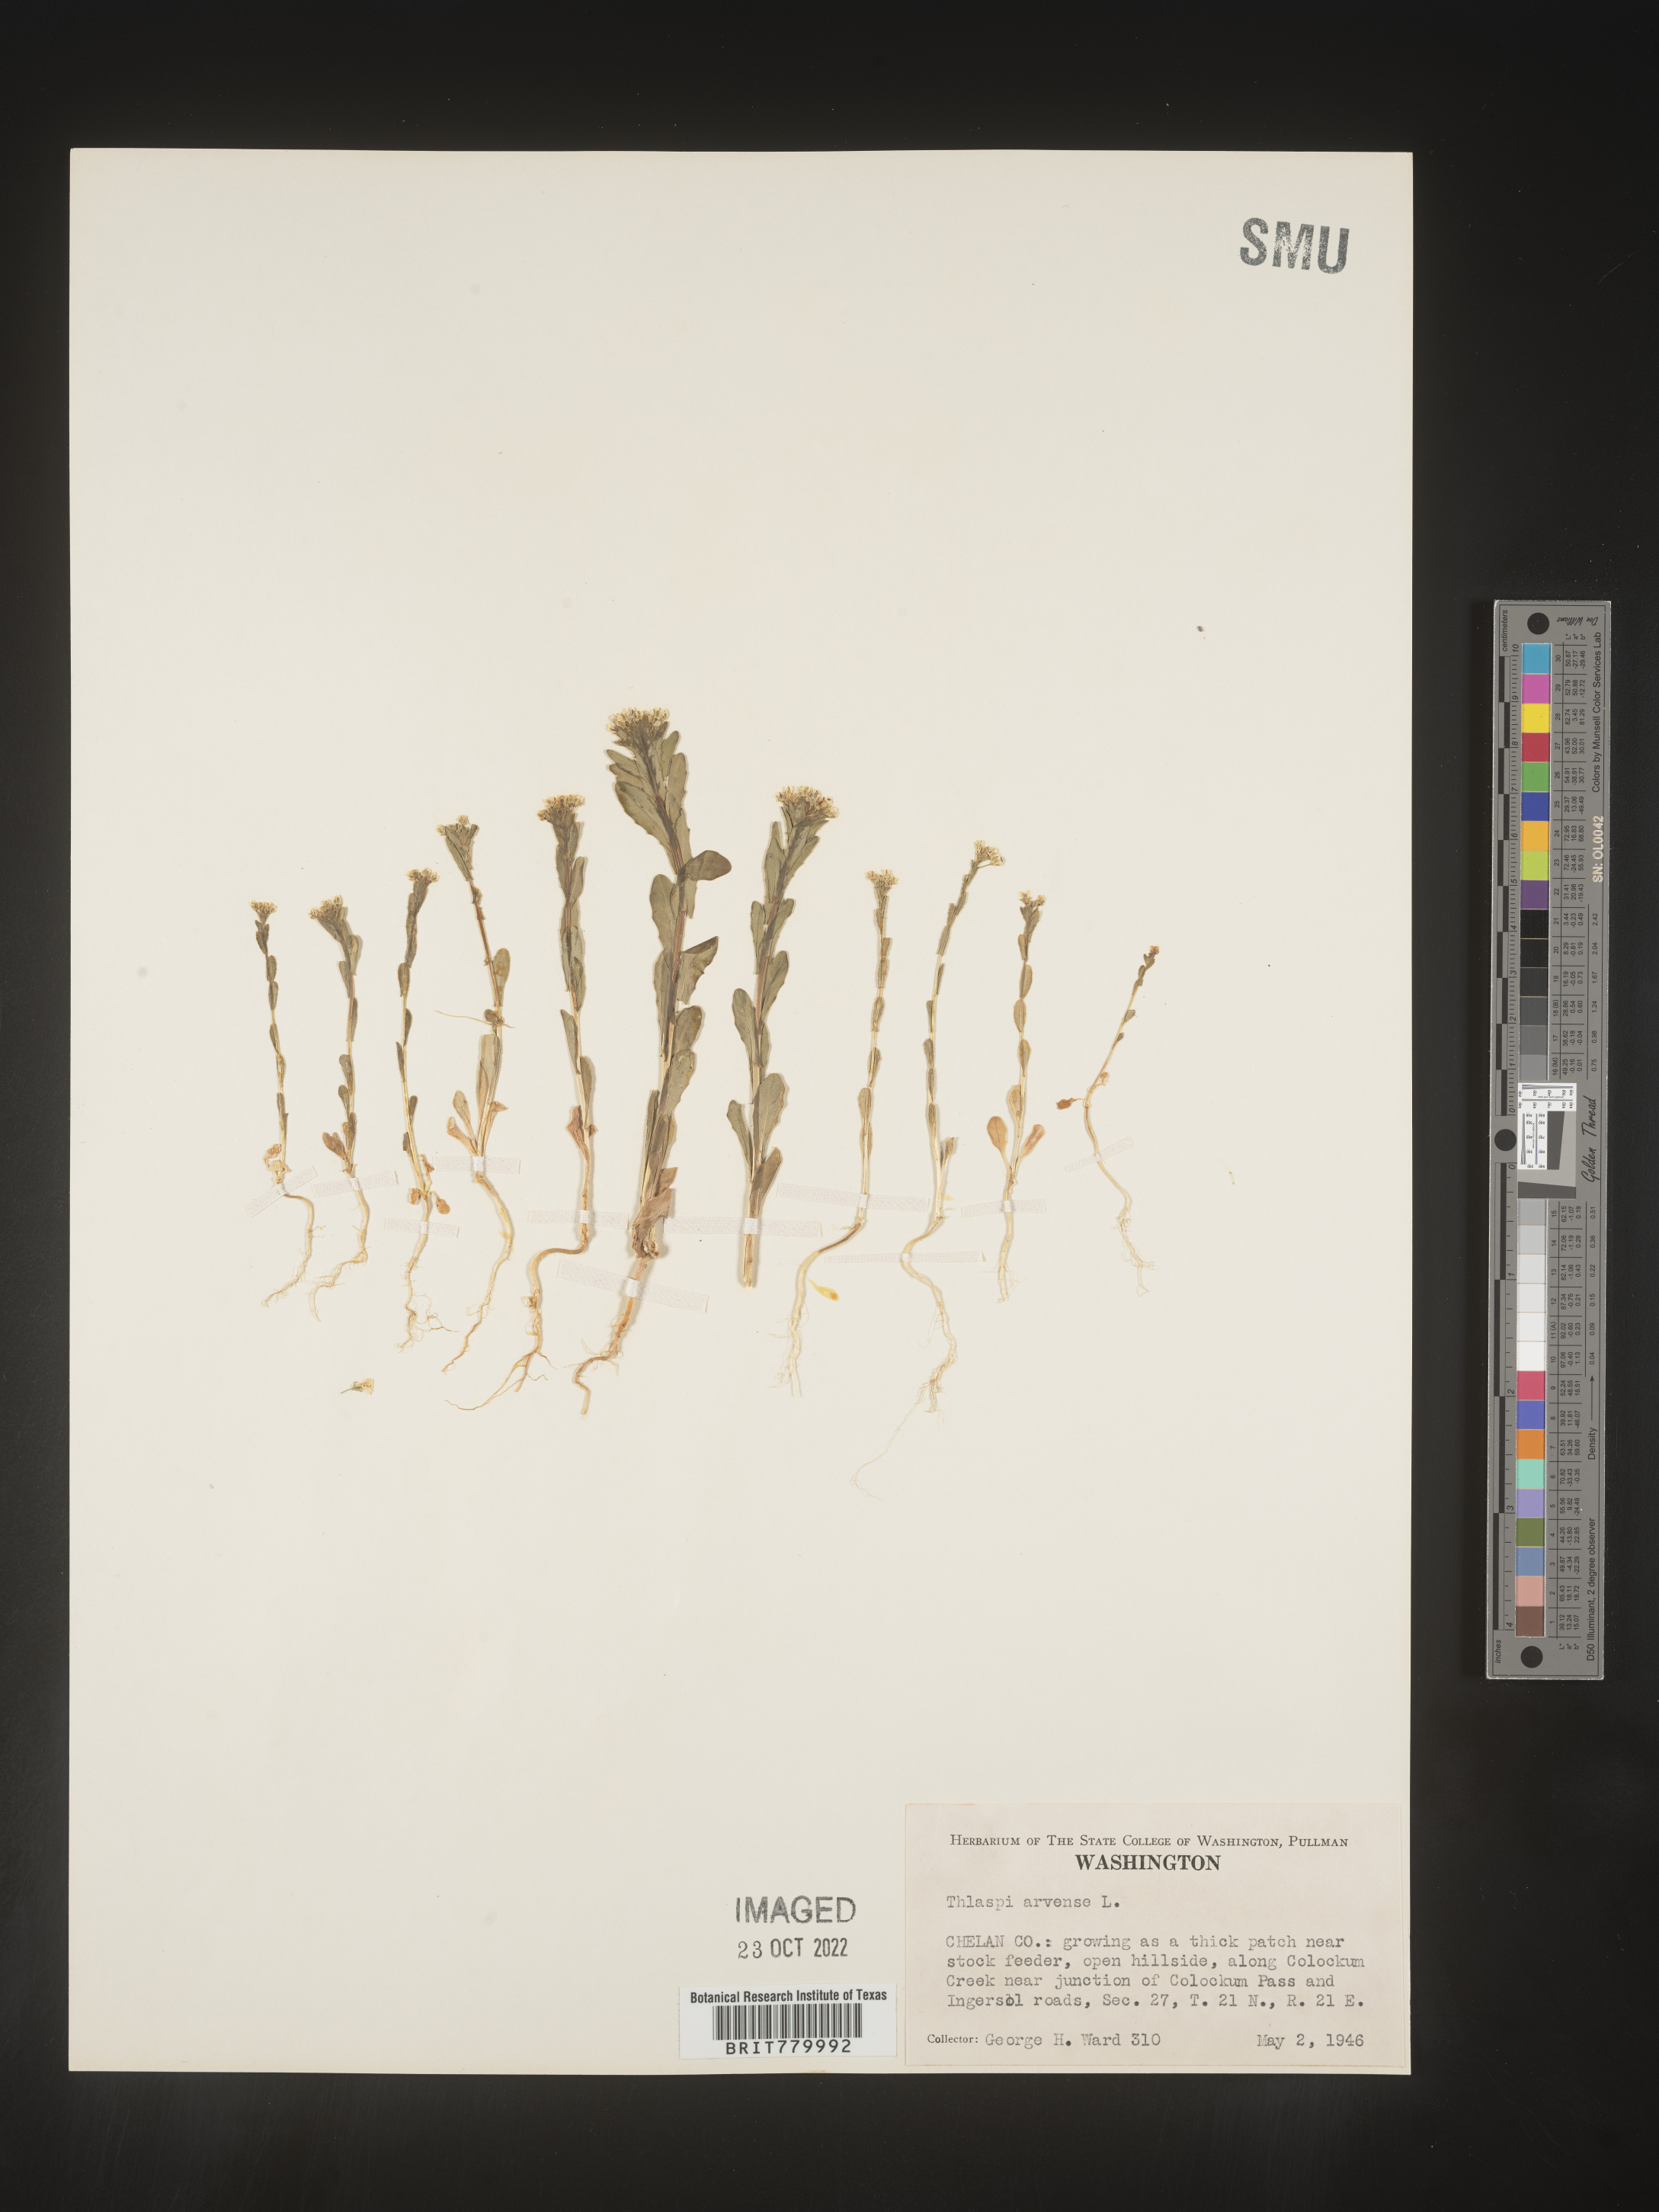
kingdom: Plantae
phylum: Tracheophyta
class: Magnoliopsida
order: Brassicales
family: Brassicaceae
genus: Thlaspi
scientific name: Thlaspi arvense
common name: Field pennycress
